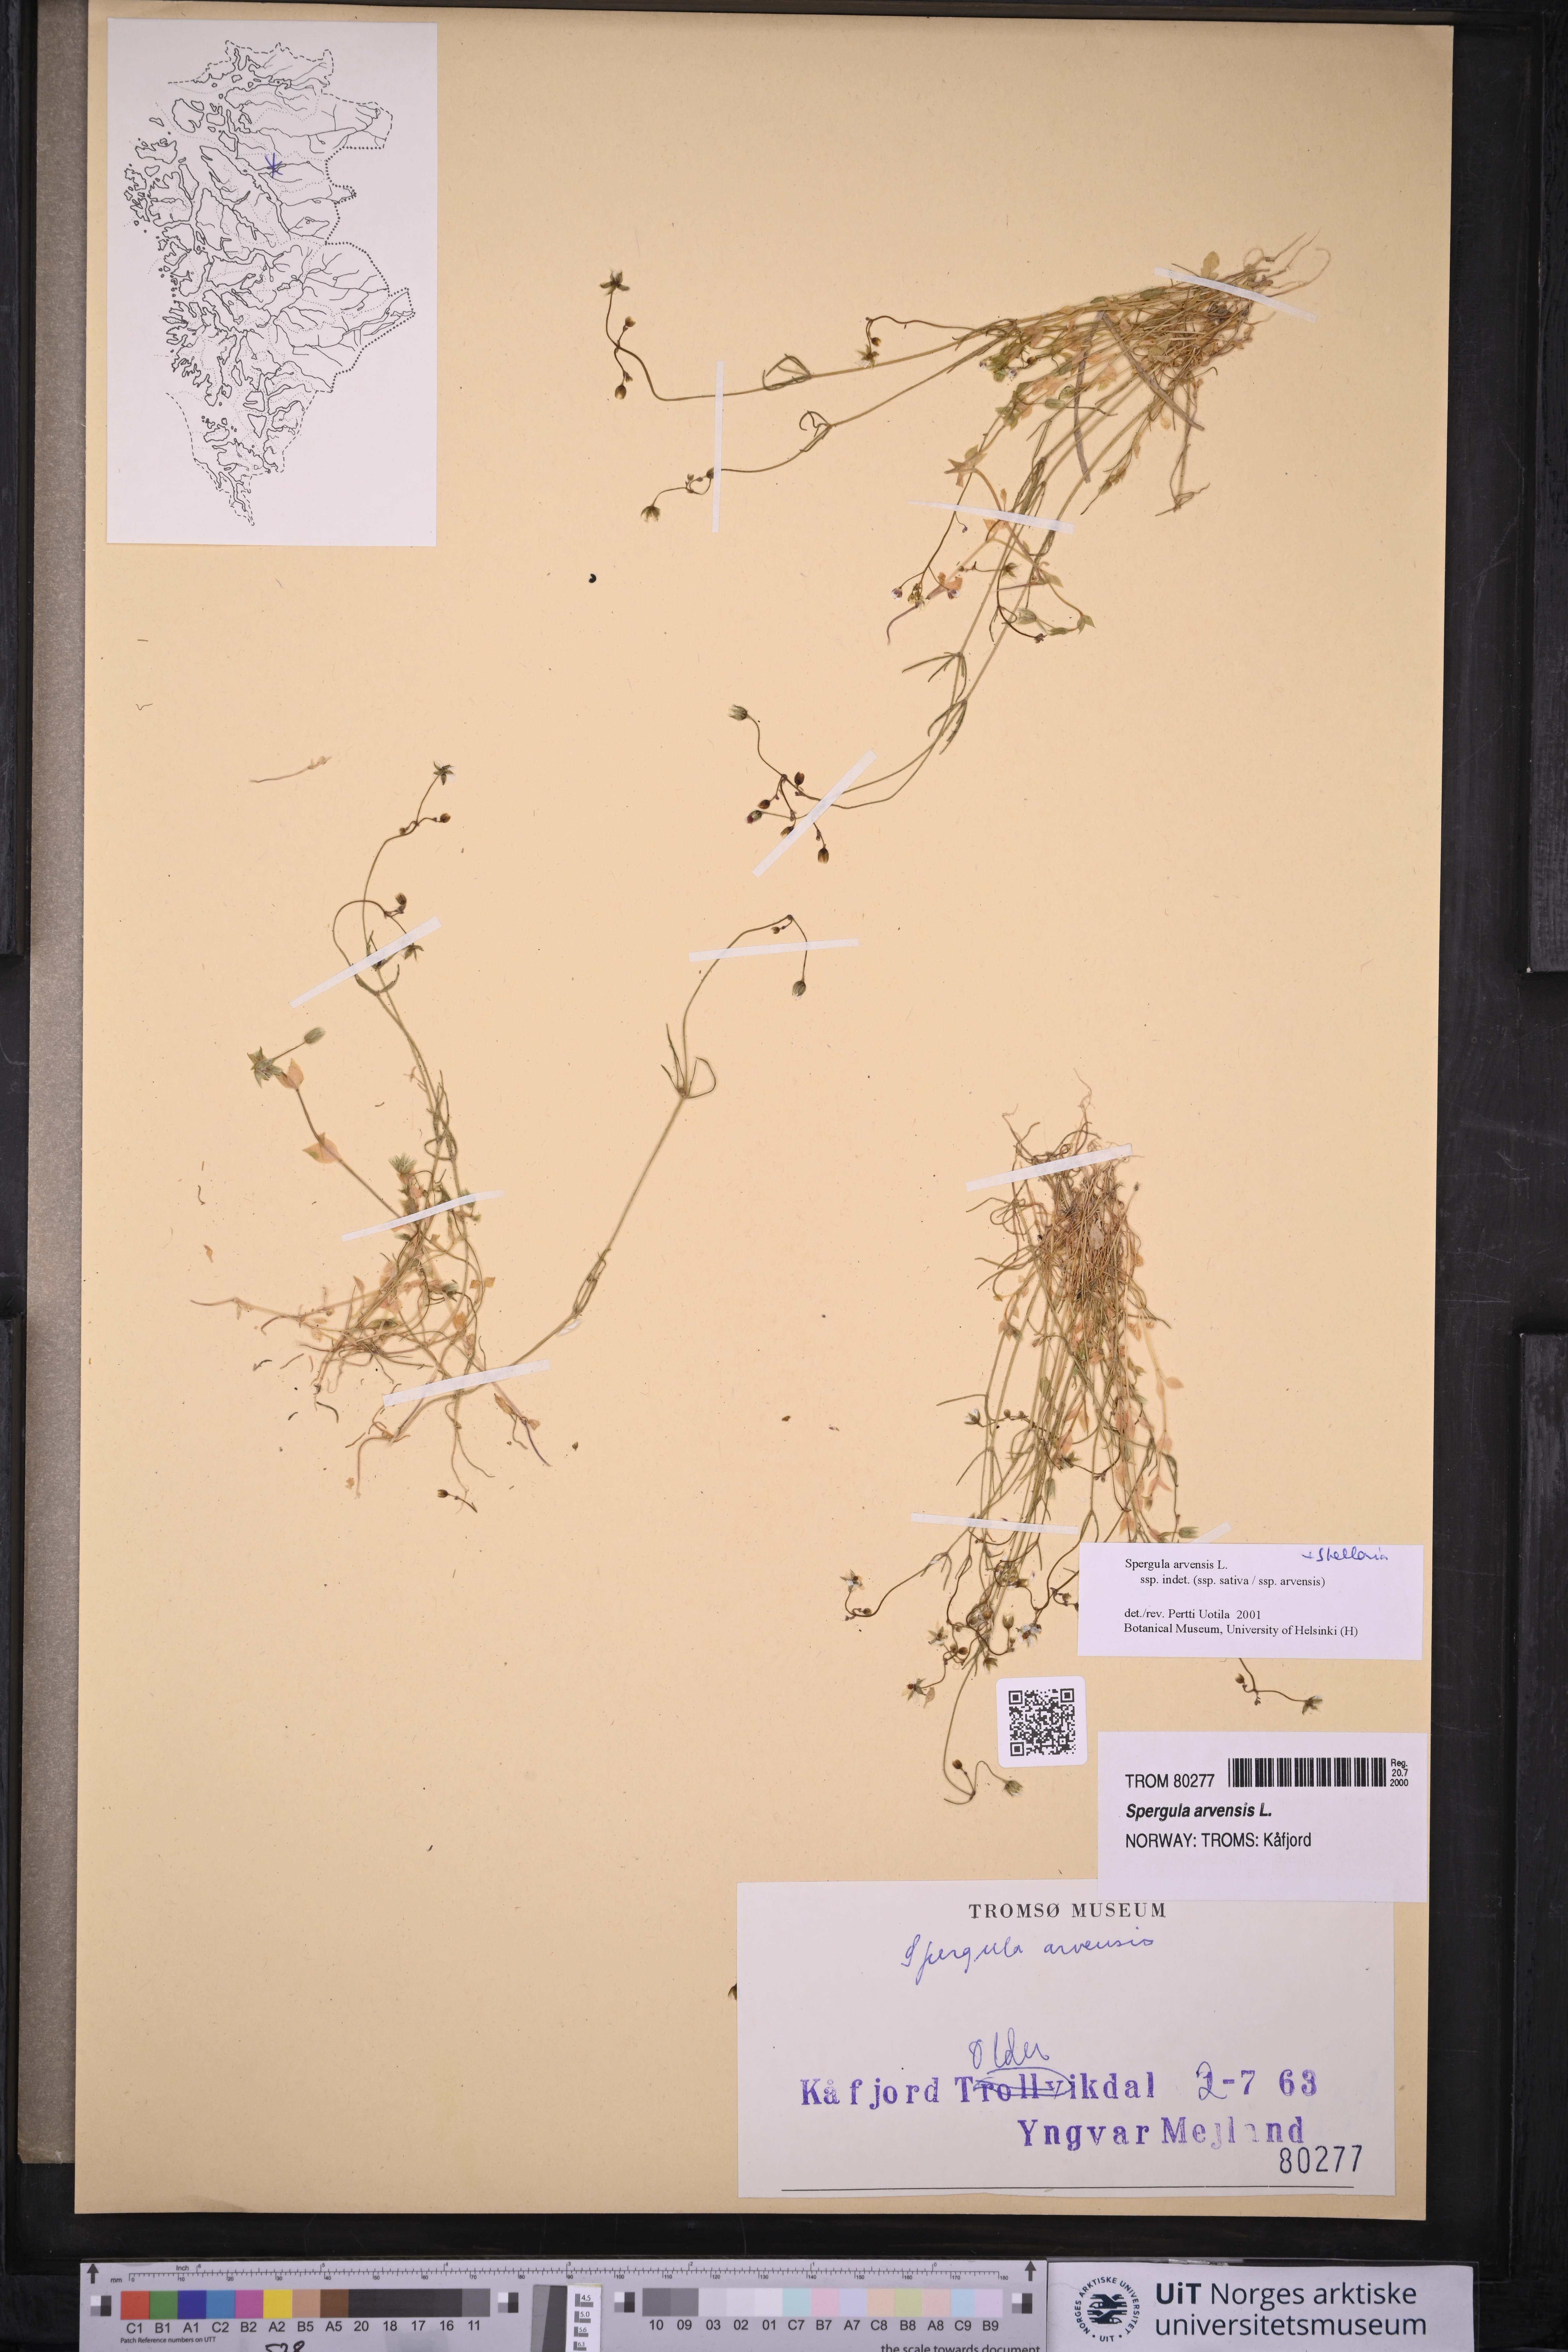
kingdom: Plantae
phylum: Tracheophyta
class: Magnoliopsida
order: Caryophyllales
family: Caryophyllaceae
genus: Spergula
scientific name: Spergula arvensis
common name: Corn spurrey
